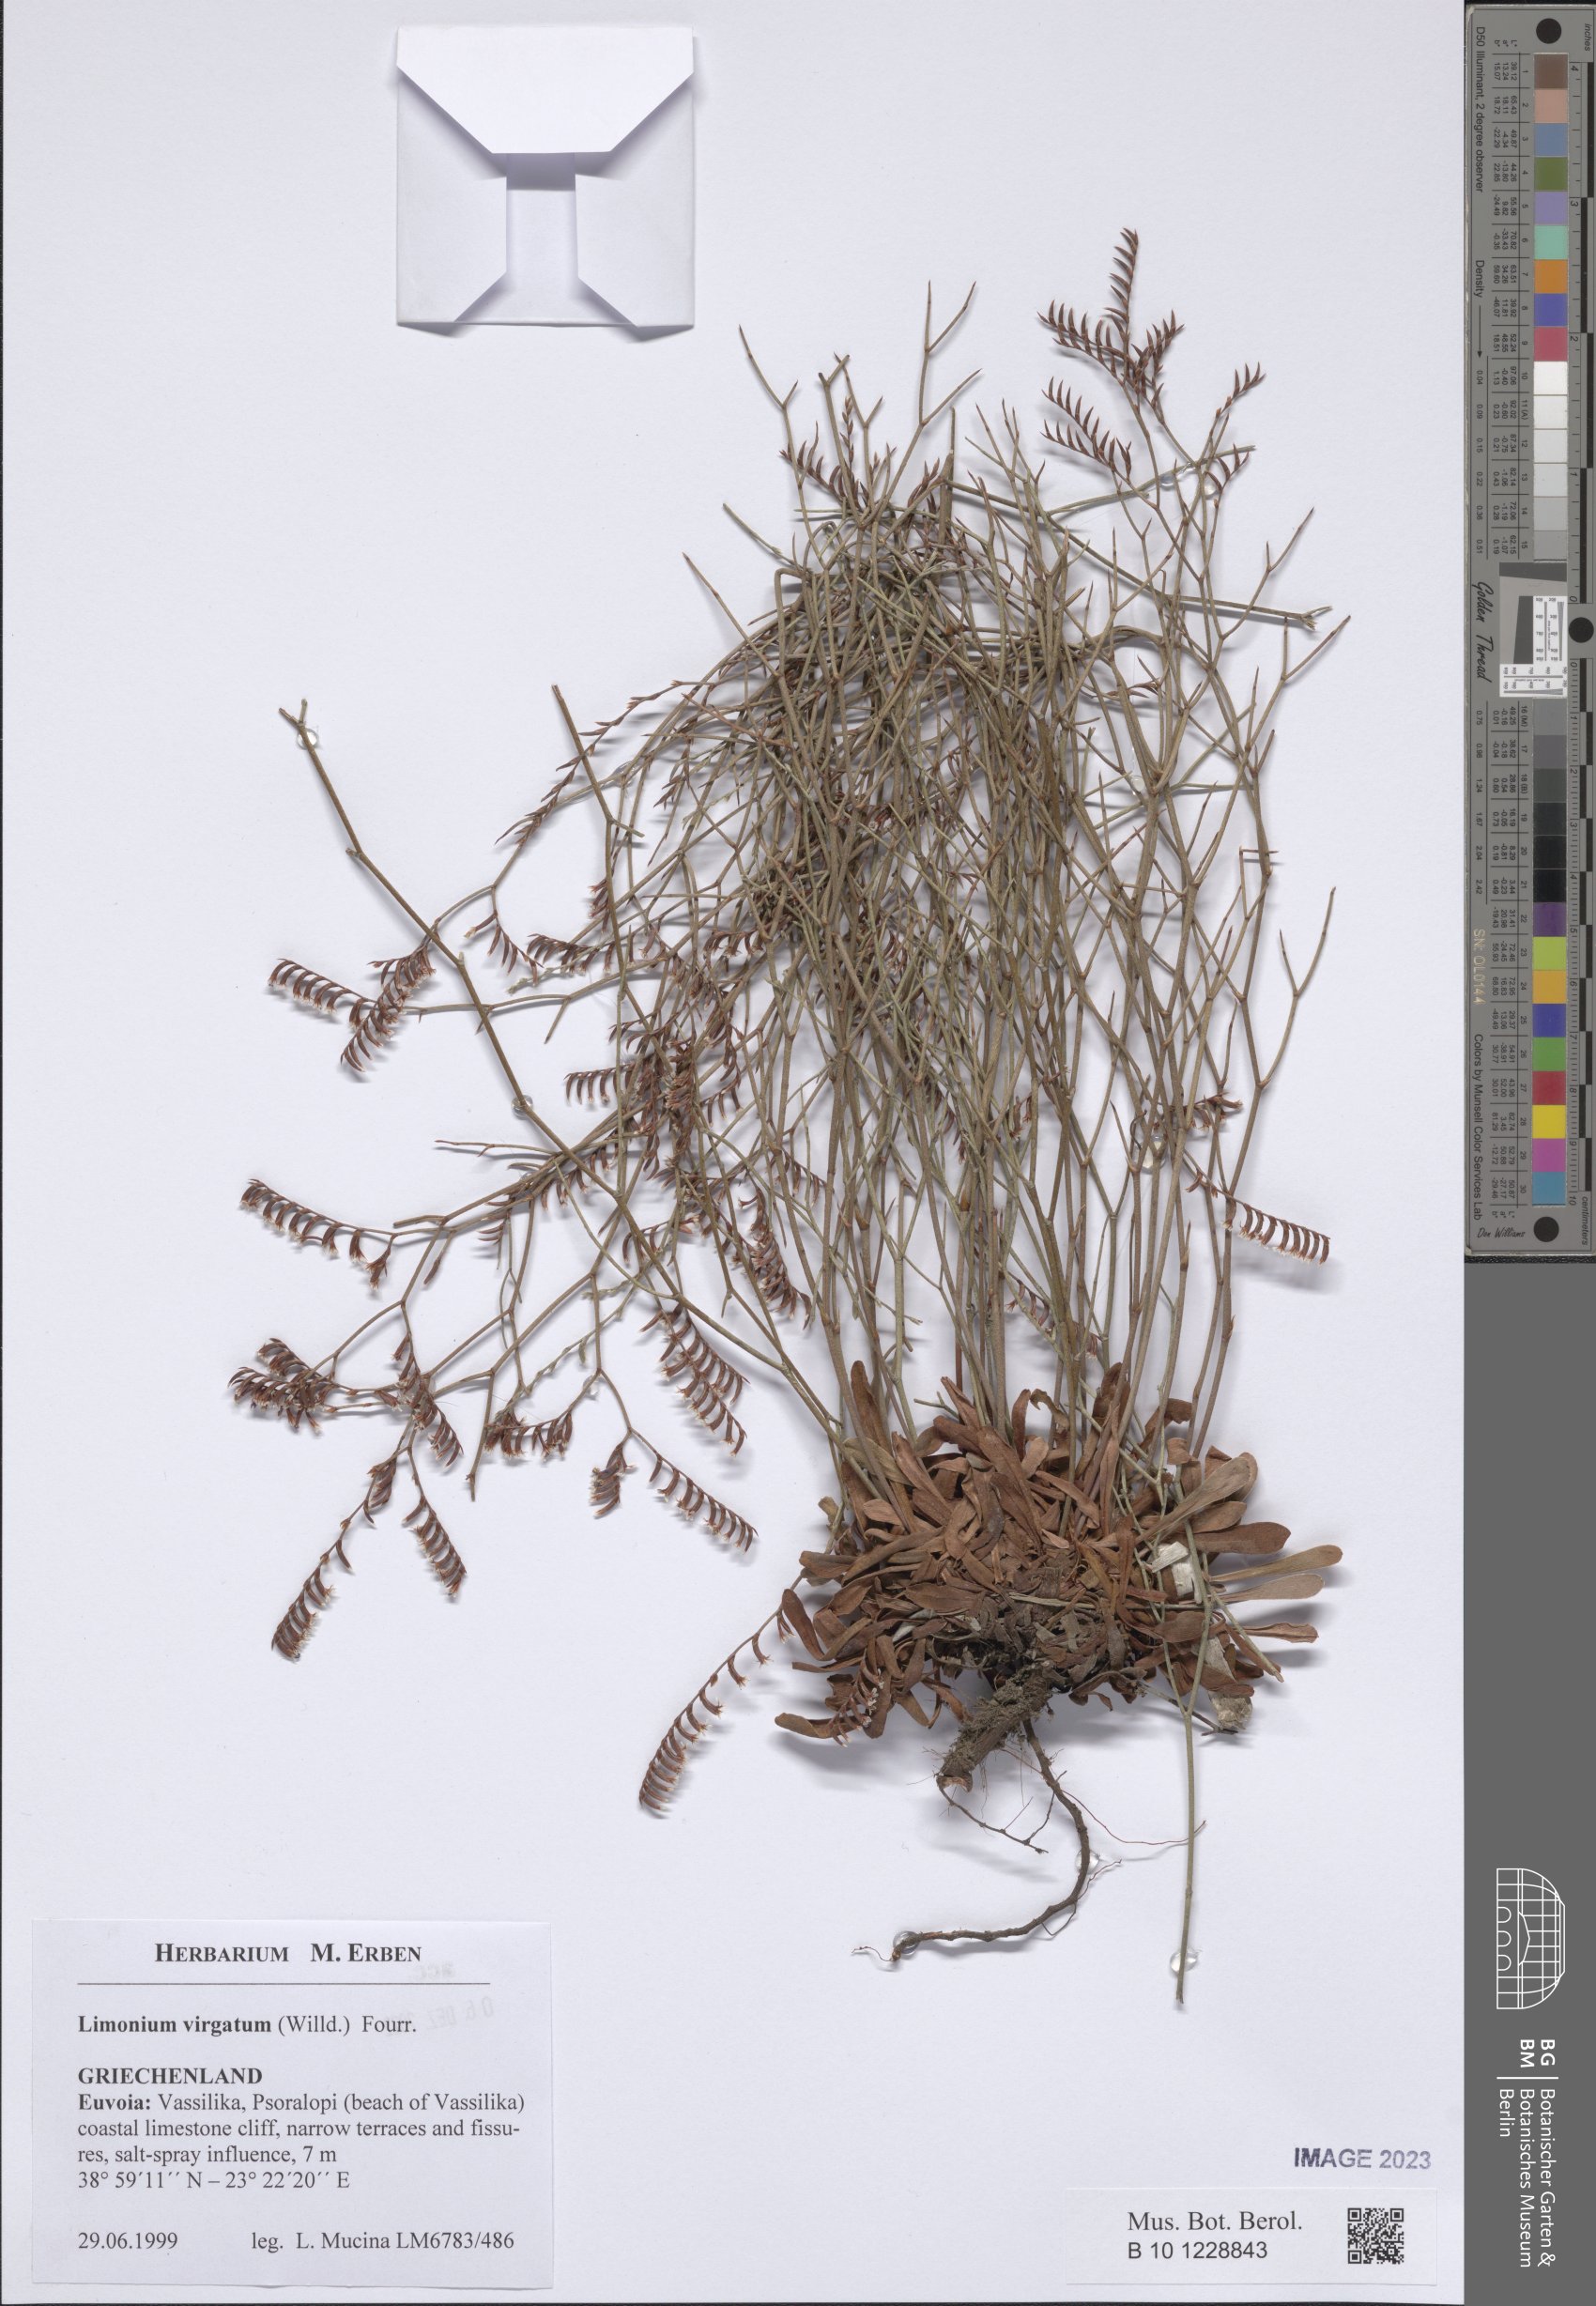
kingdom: Plantae
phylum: Tracheophyta
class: Magnoliopsida
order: Caryophyllales
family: Plumbaginaceae
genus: Limonium
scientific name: Limonium virgatum
